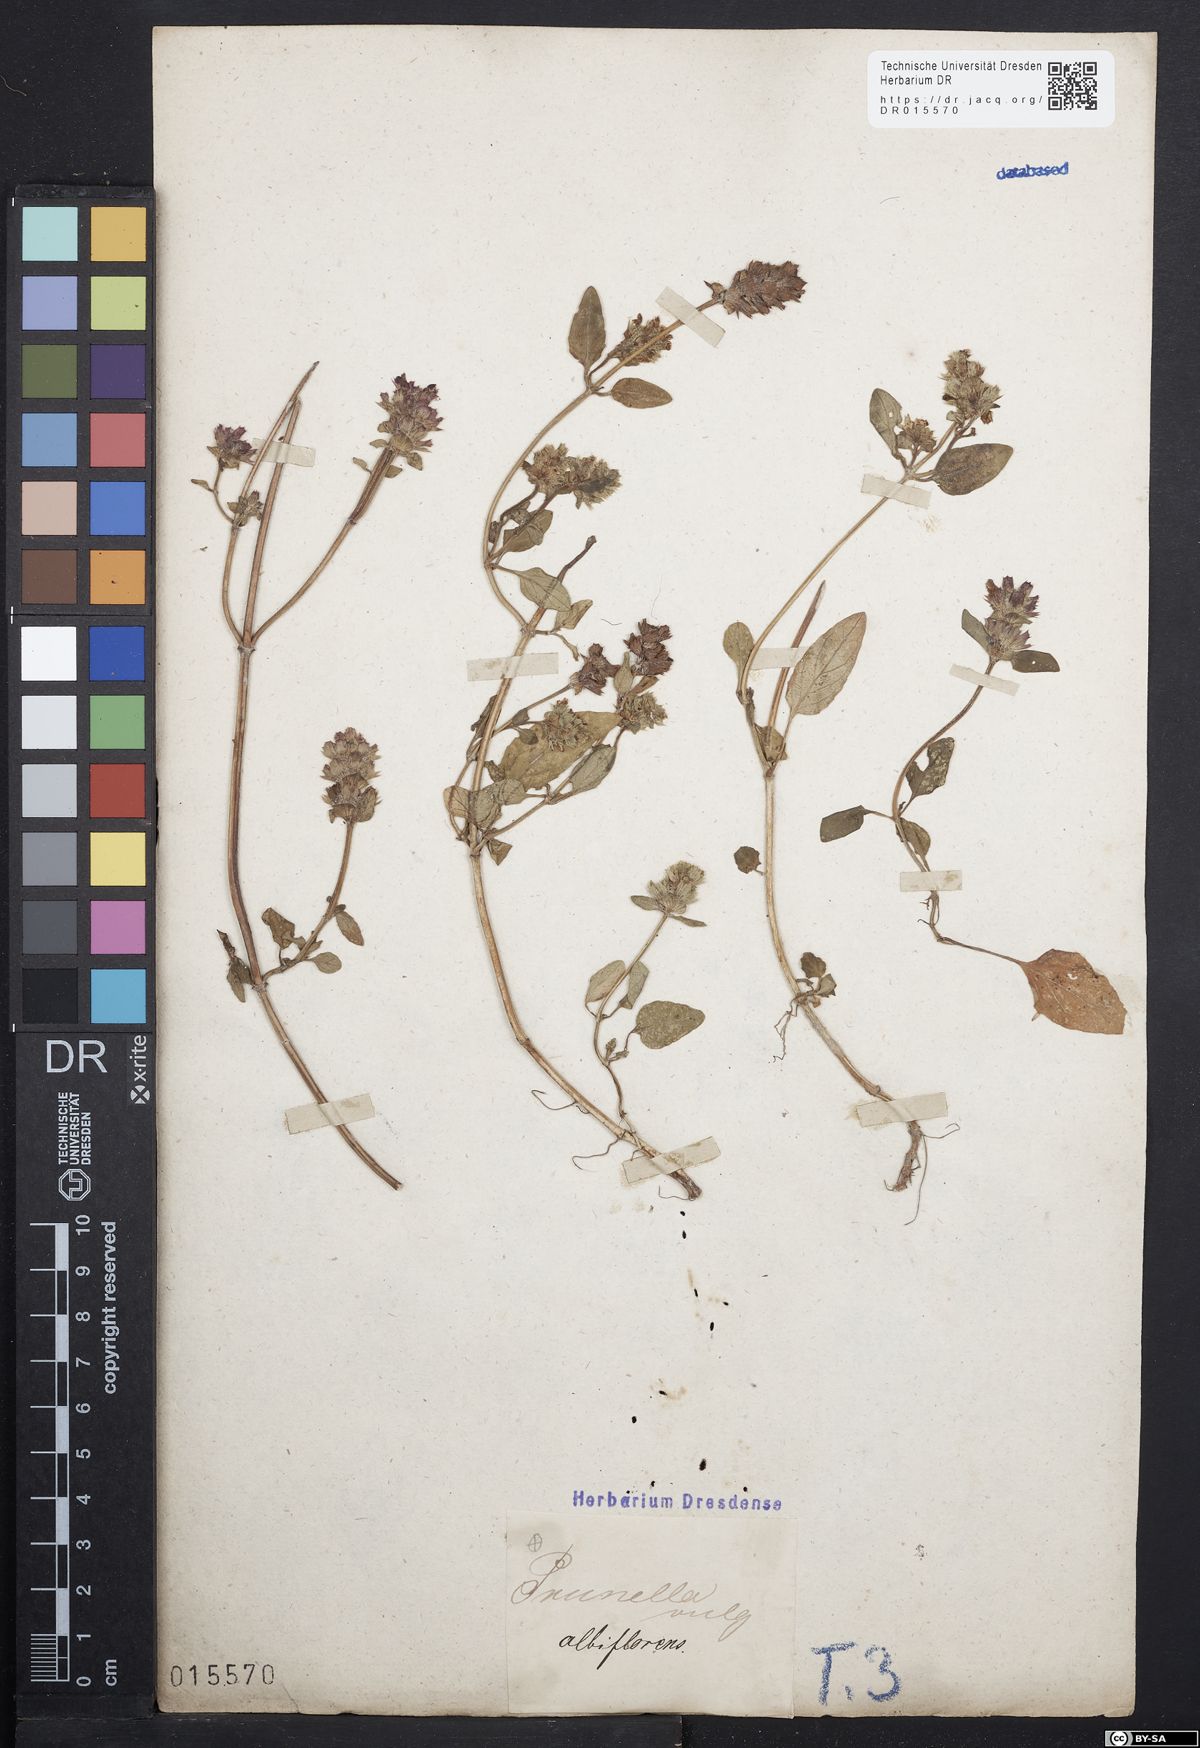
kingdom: Plantae
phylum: Tracheophyta
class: Magnoliopsida
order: Lamiales
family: Lamiaceae
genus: Prunella
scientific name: Prunella vulgaris
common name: Heal-all
